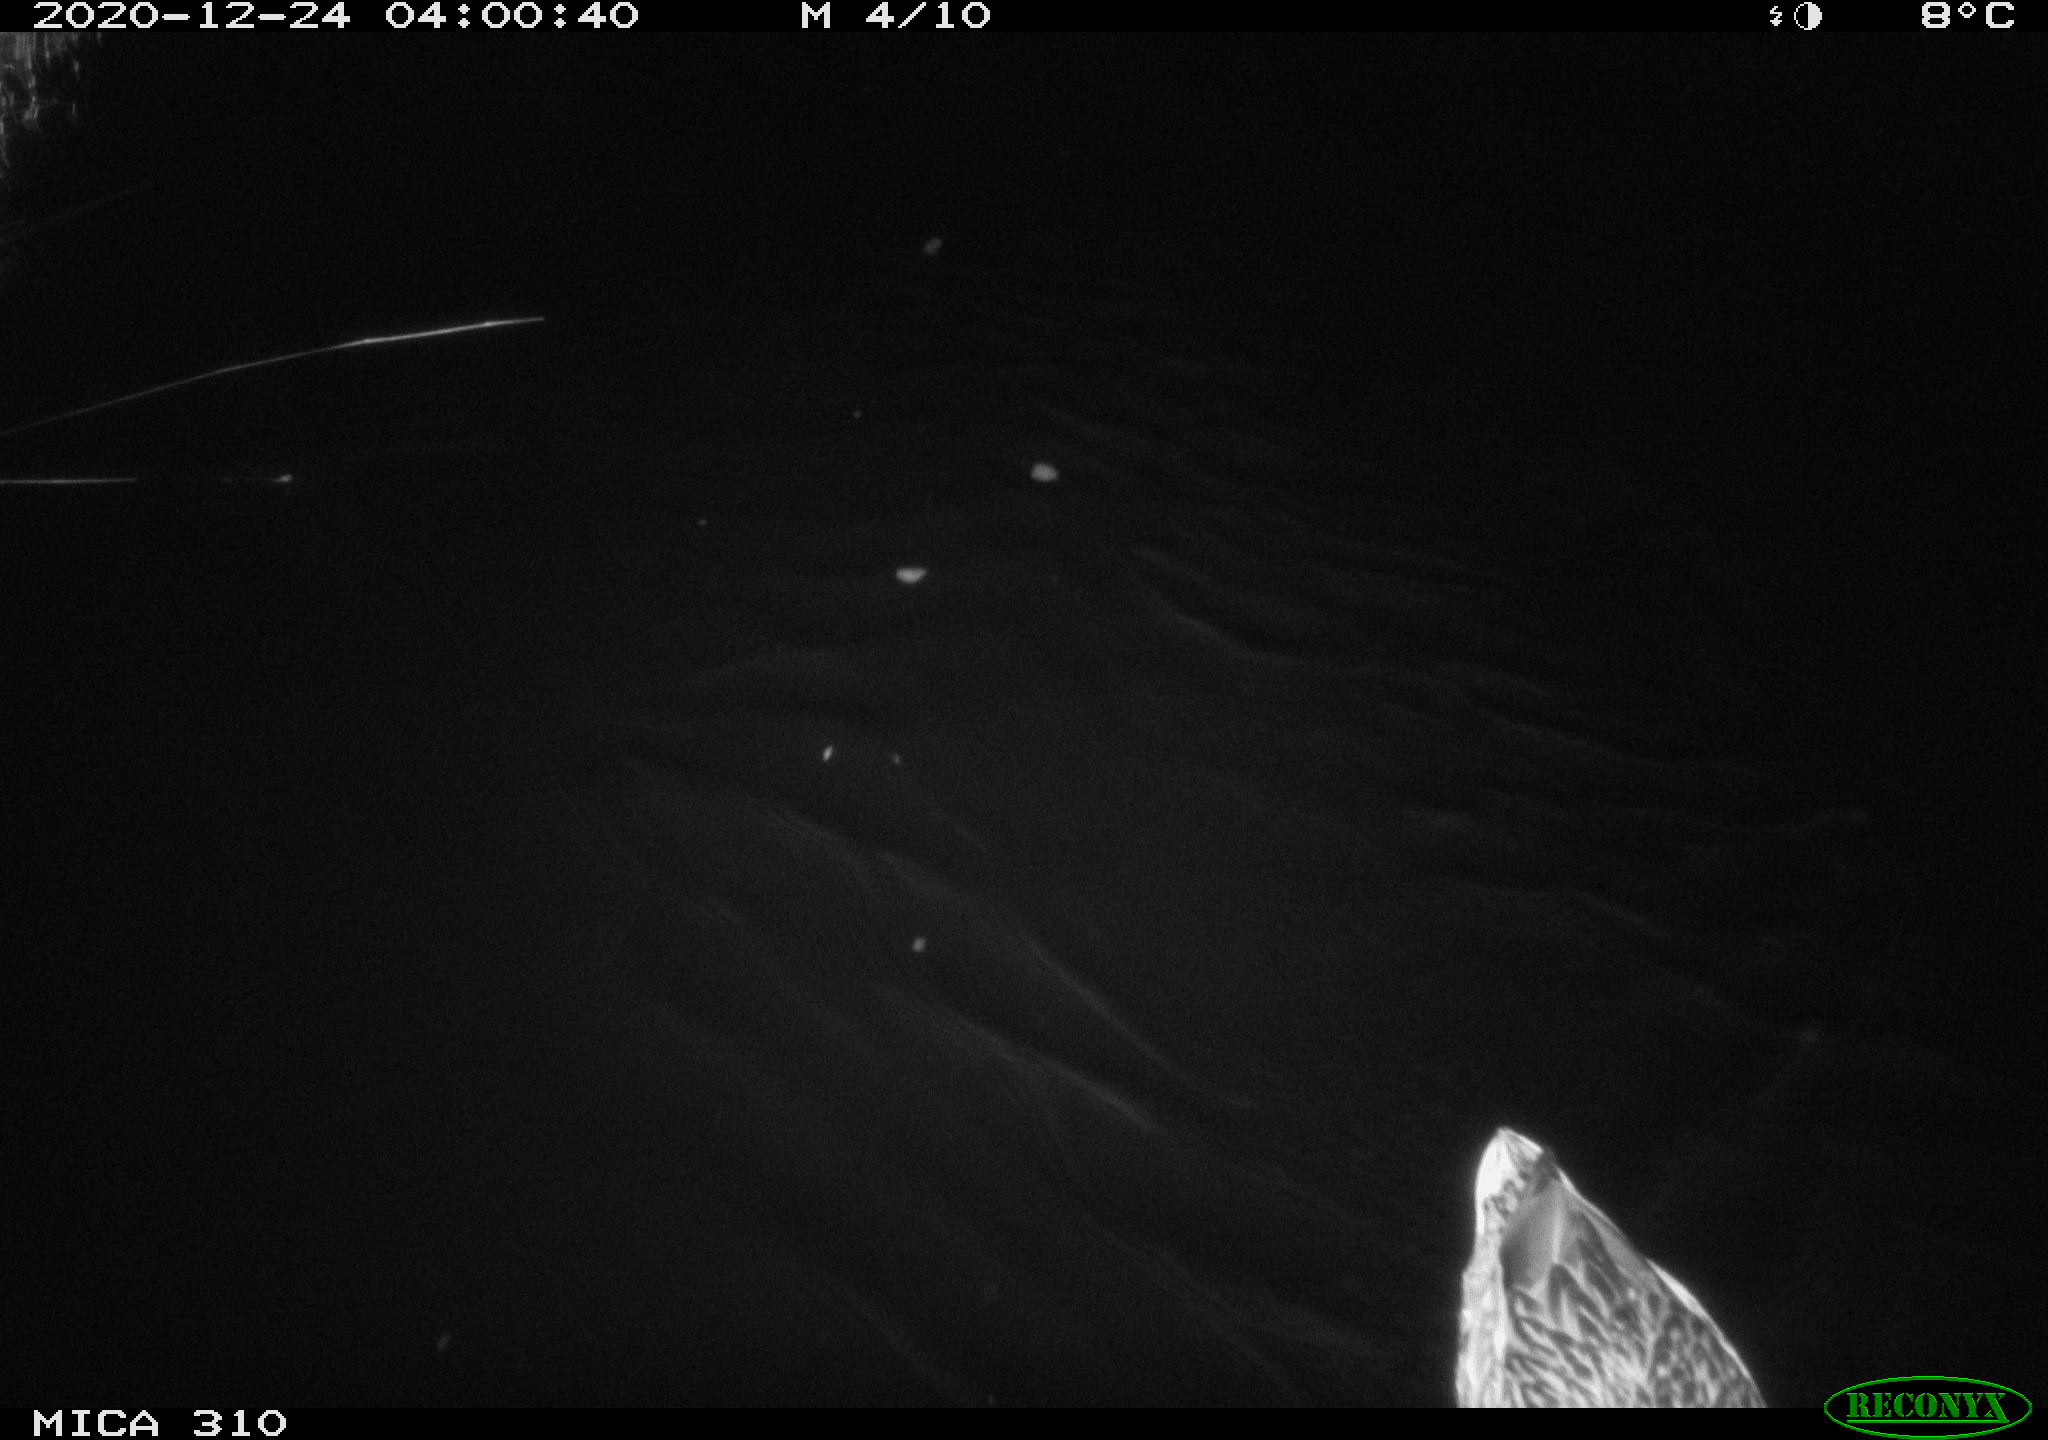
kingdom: Animalia
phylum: Chordata
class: Aves
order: Anseriformes
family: Anatidae
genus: Anas
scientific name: Anas platyrhynchos
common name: Mallard
